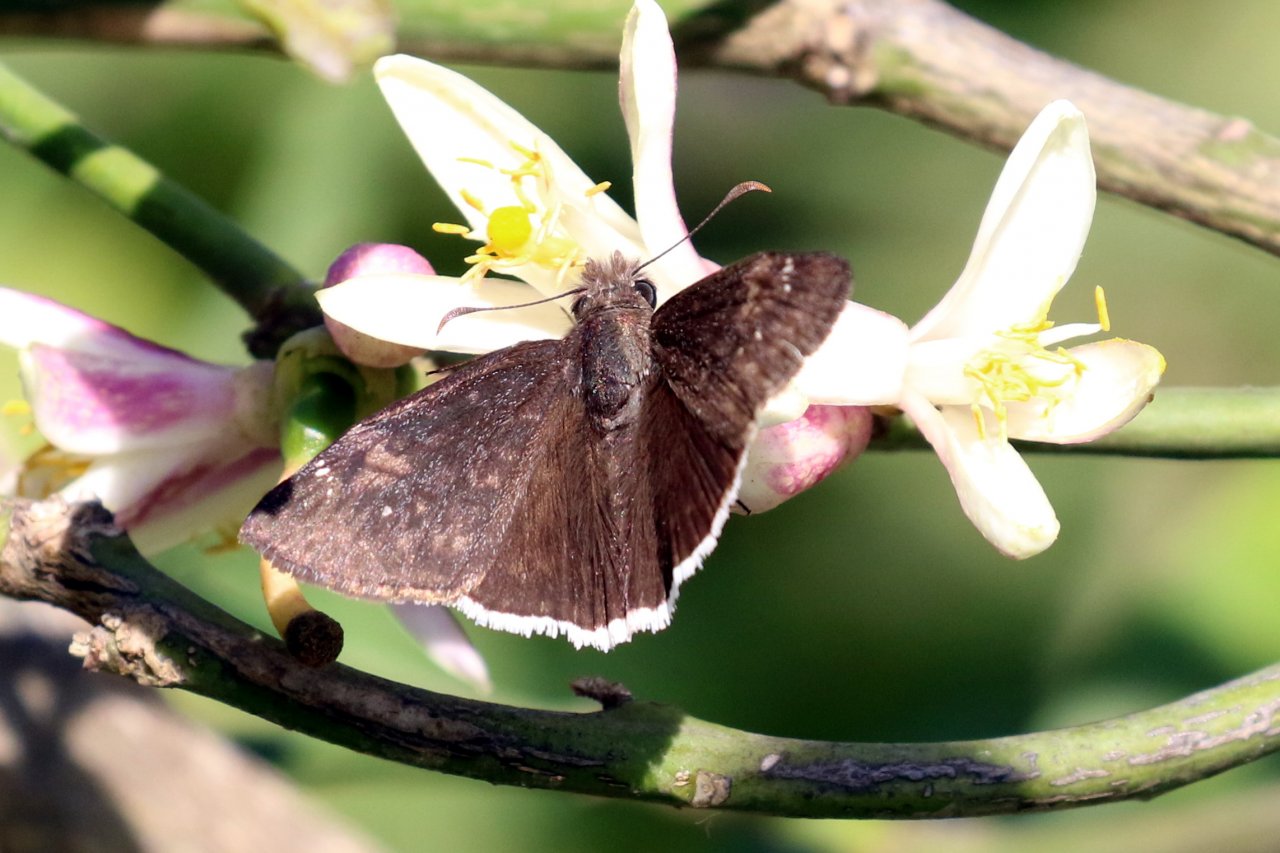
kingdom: Animalia
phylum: Arthropoda
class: Insecta
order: Lepidoptera
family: Hesperiidae
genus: Erynnis
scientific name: Erynnis funeralis
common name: Funereal Duskywing
